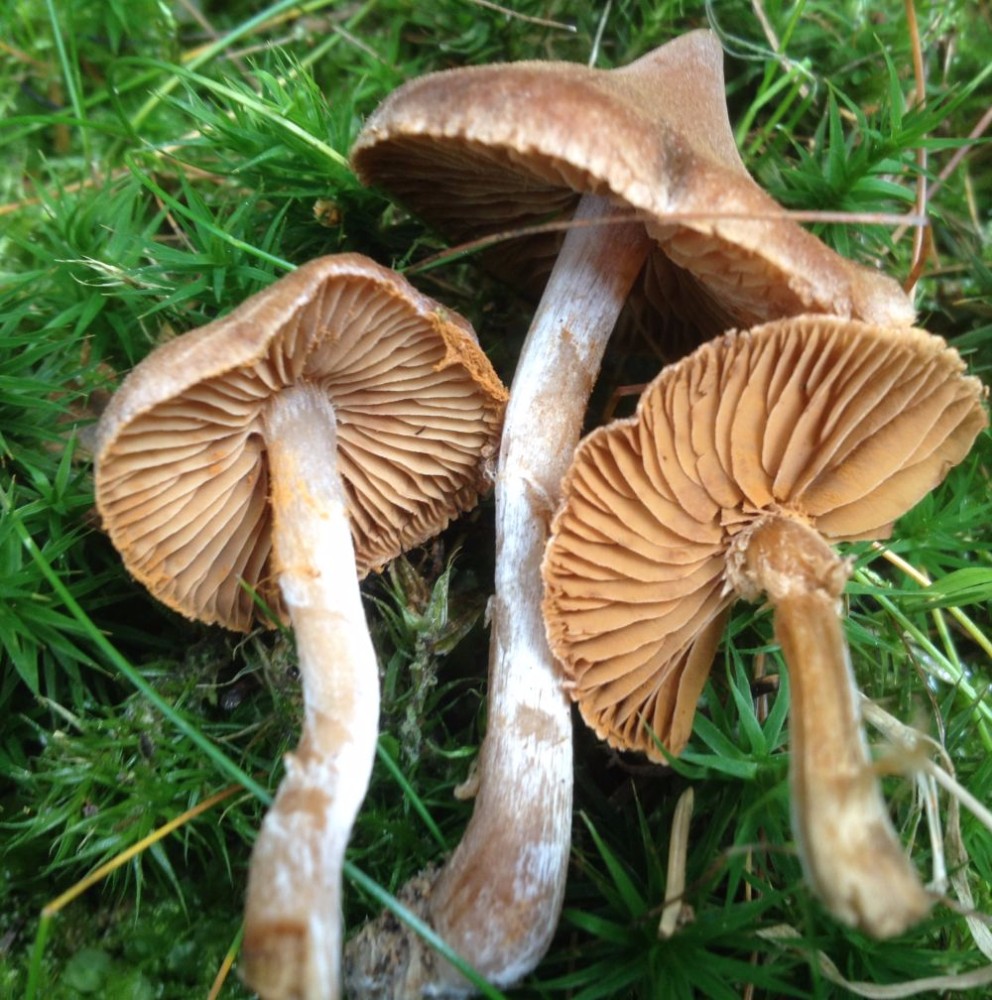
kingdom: Fungi
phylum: Basidiomycota
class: Agaricomycetes
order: Agaricales
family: Cortinariaceae
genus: Cortinarius
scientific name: Cortinarius
